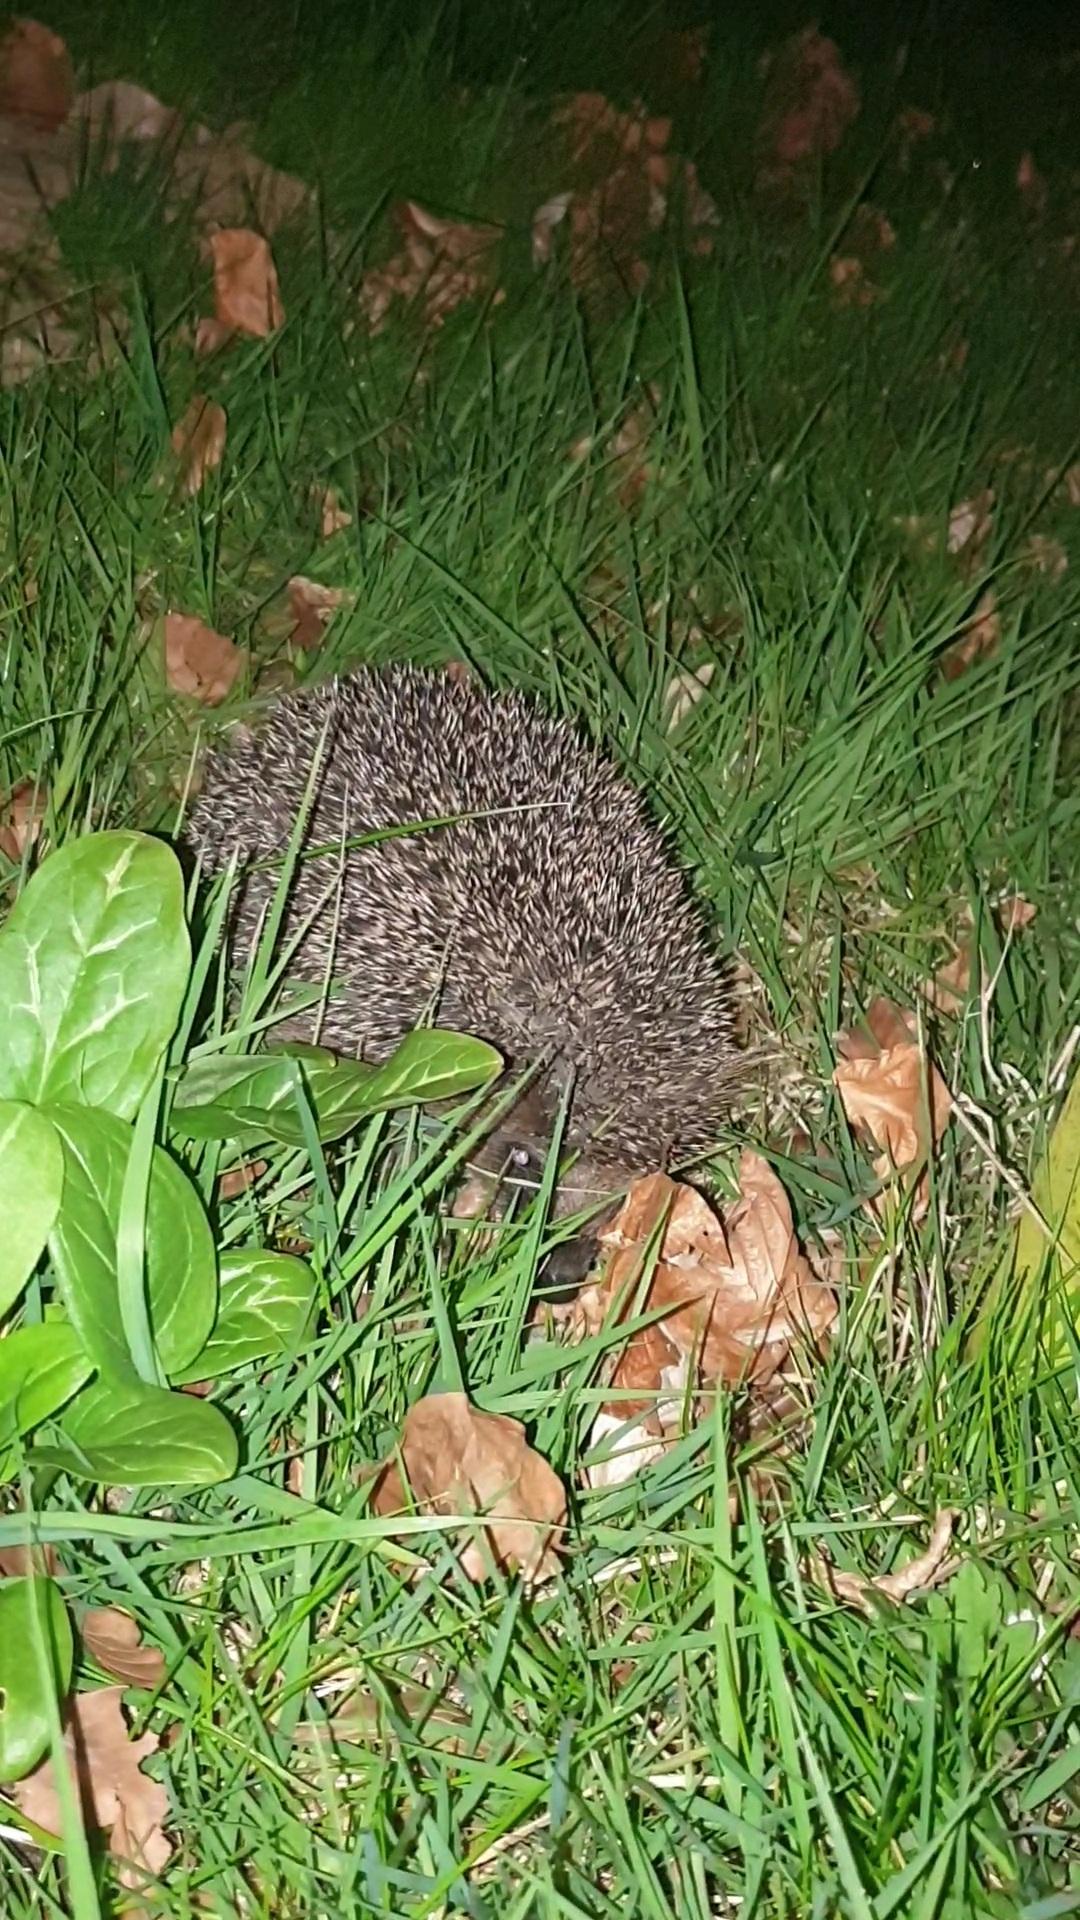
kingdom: Animalia
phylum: Chordata
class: Mammalia
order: Erinaceomorpha
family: Erinaceidae
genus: Erinaceus
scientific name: Erinaceus europaeus
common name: Pindsvin
